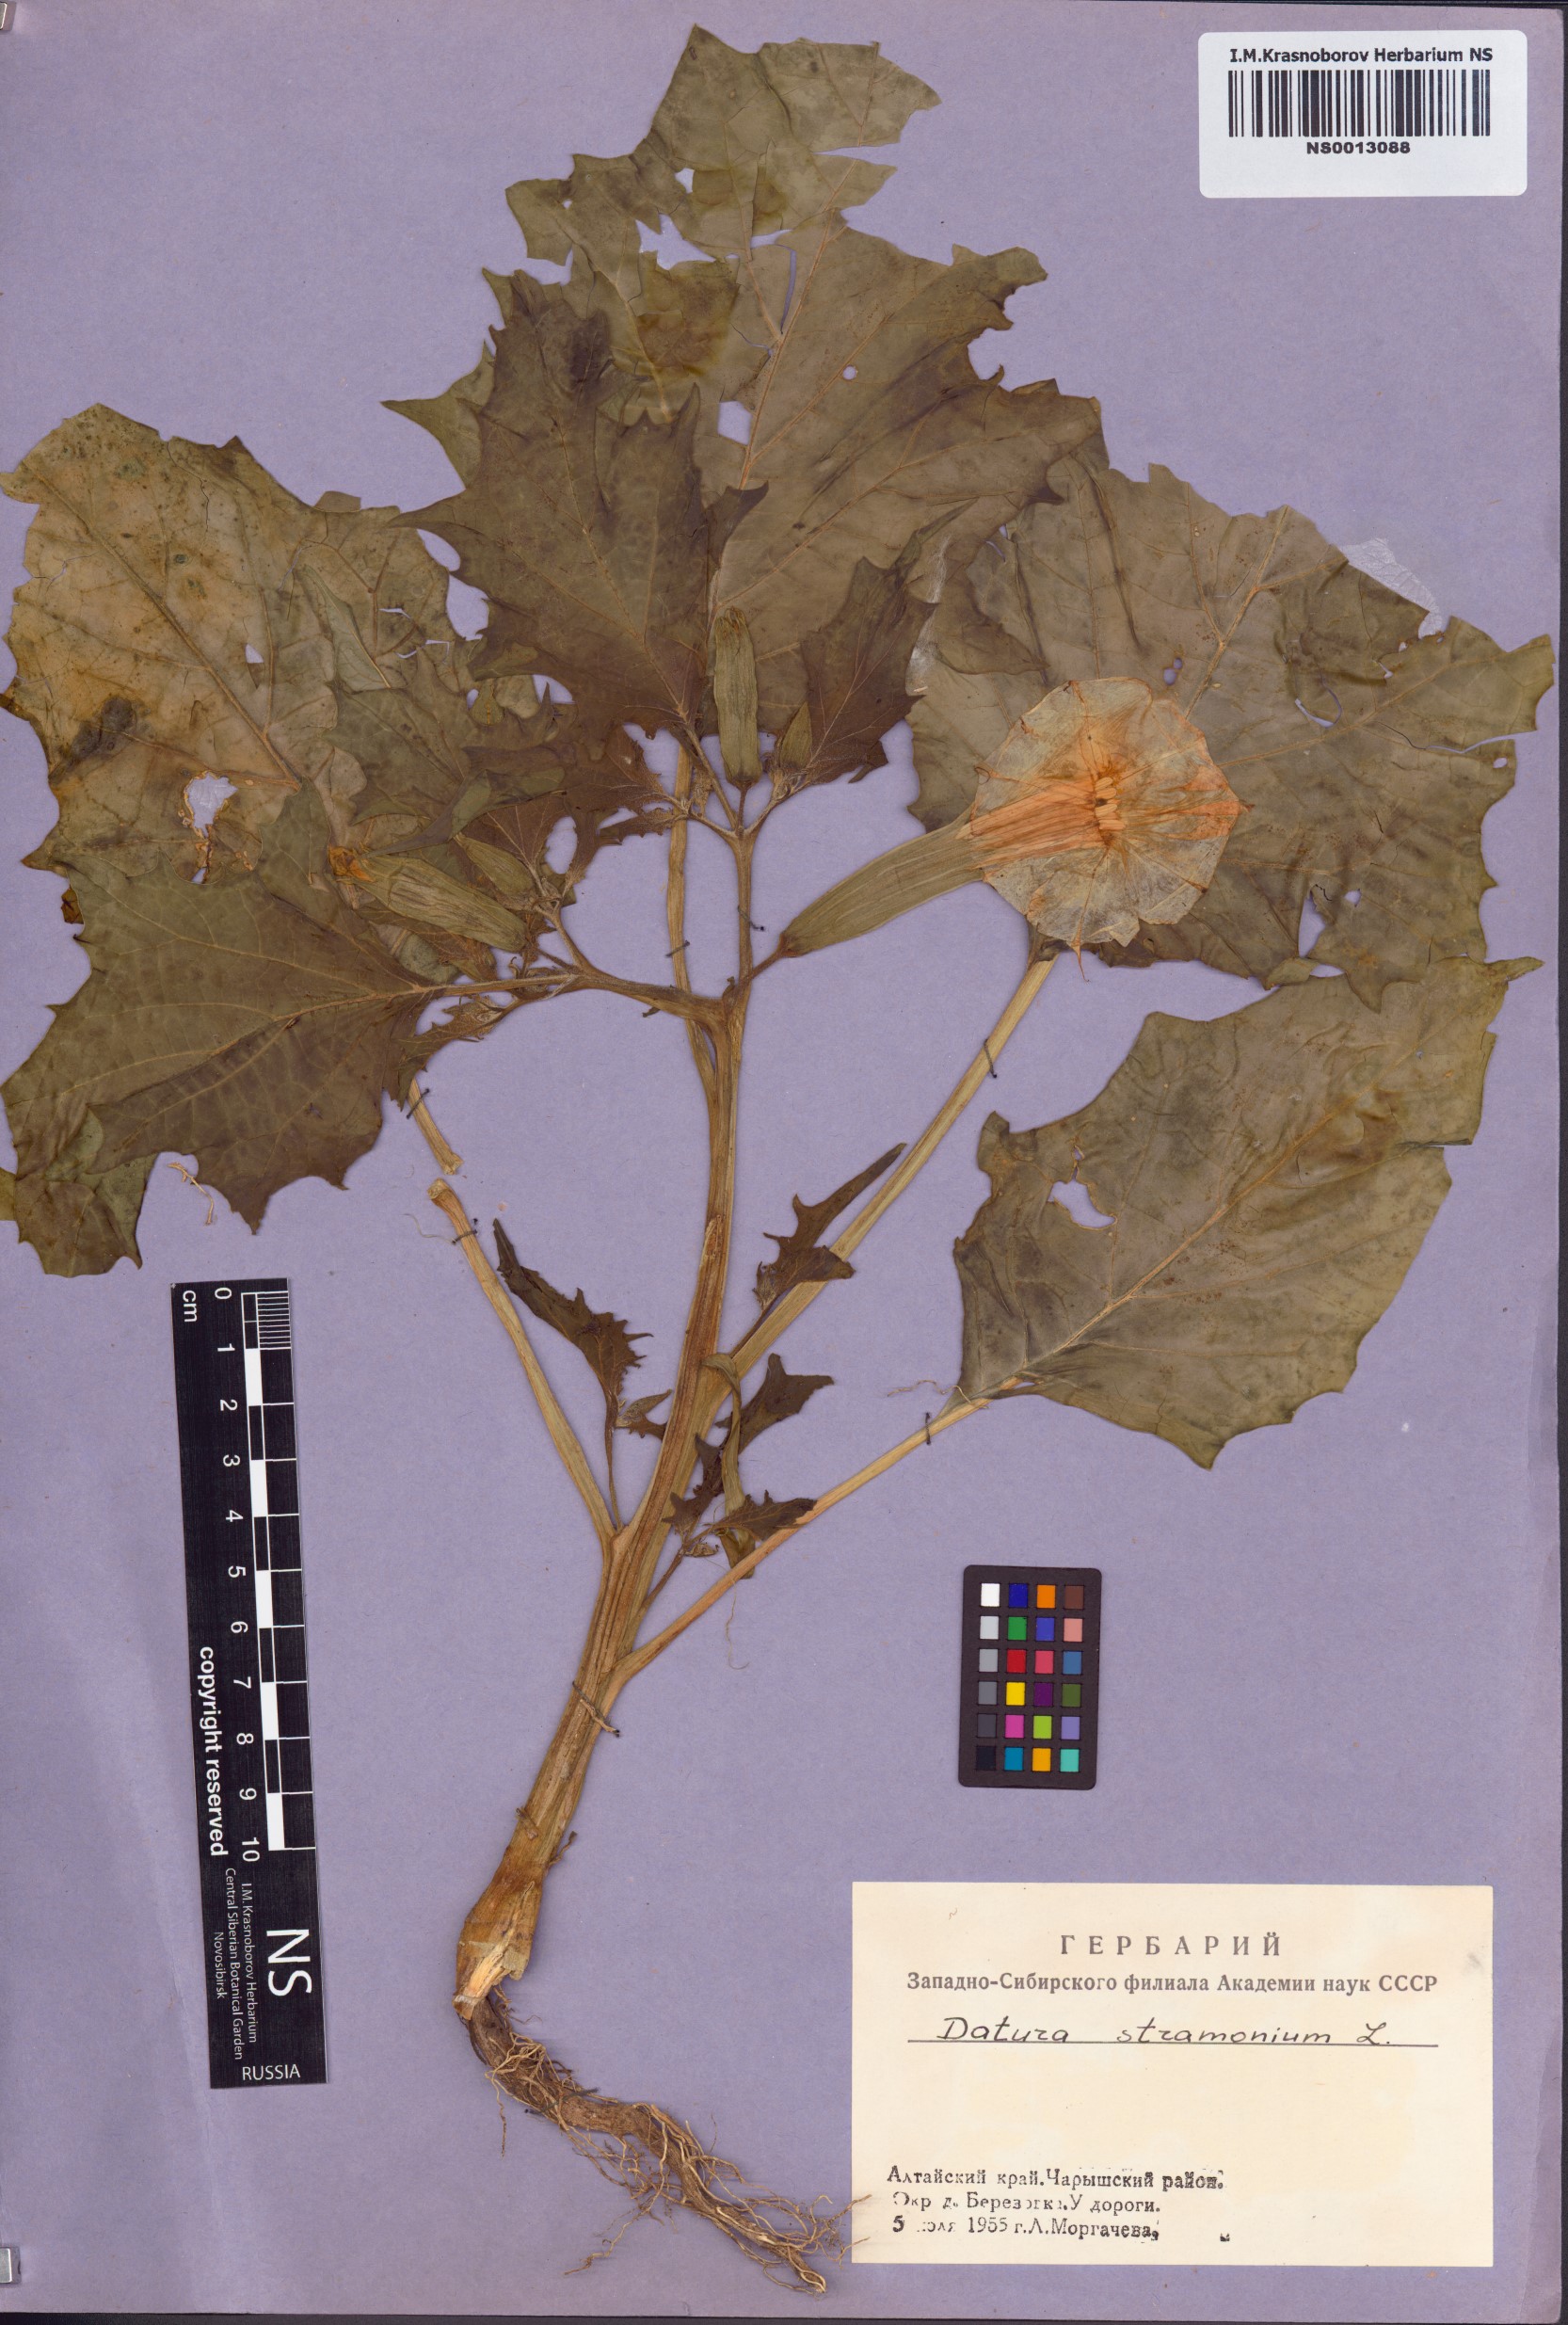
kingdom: Plantae
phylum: Tracheophyta
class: Magnoliopsida
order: Solanales
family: Solanaceae
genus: Datura
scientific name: Datura stramonium
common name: Thorn-apple
